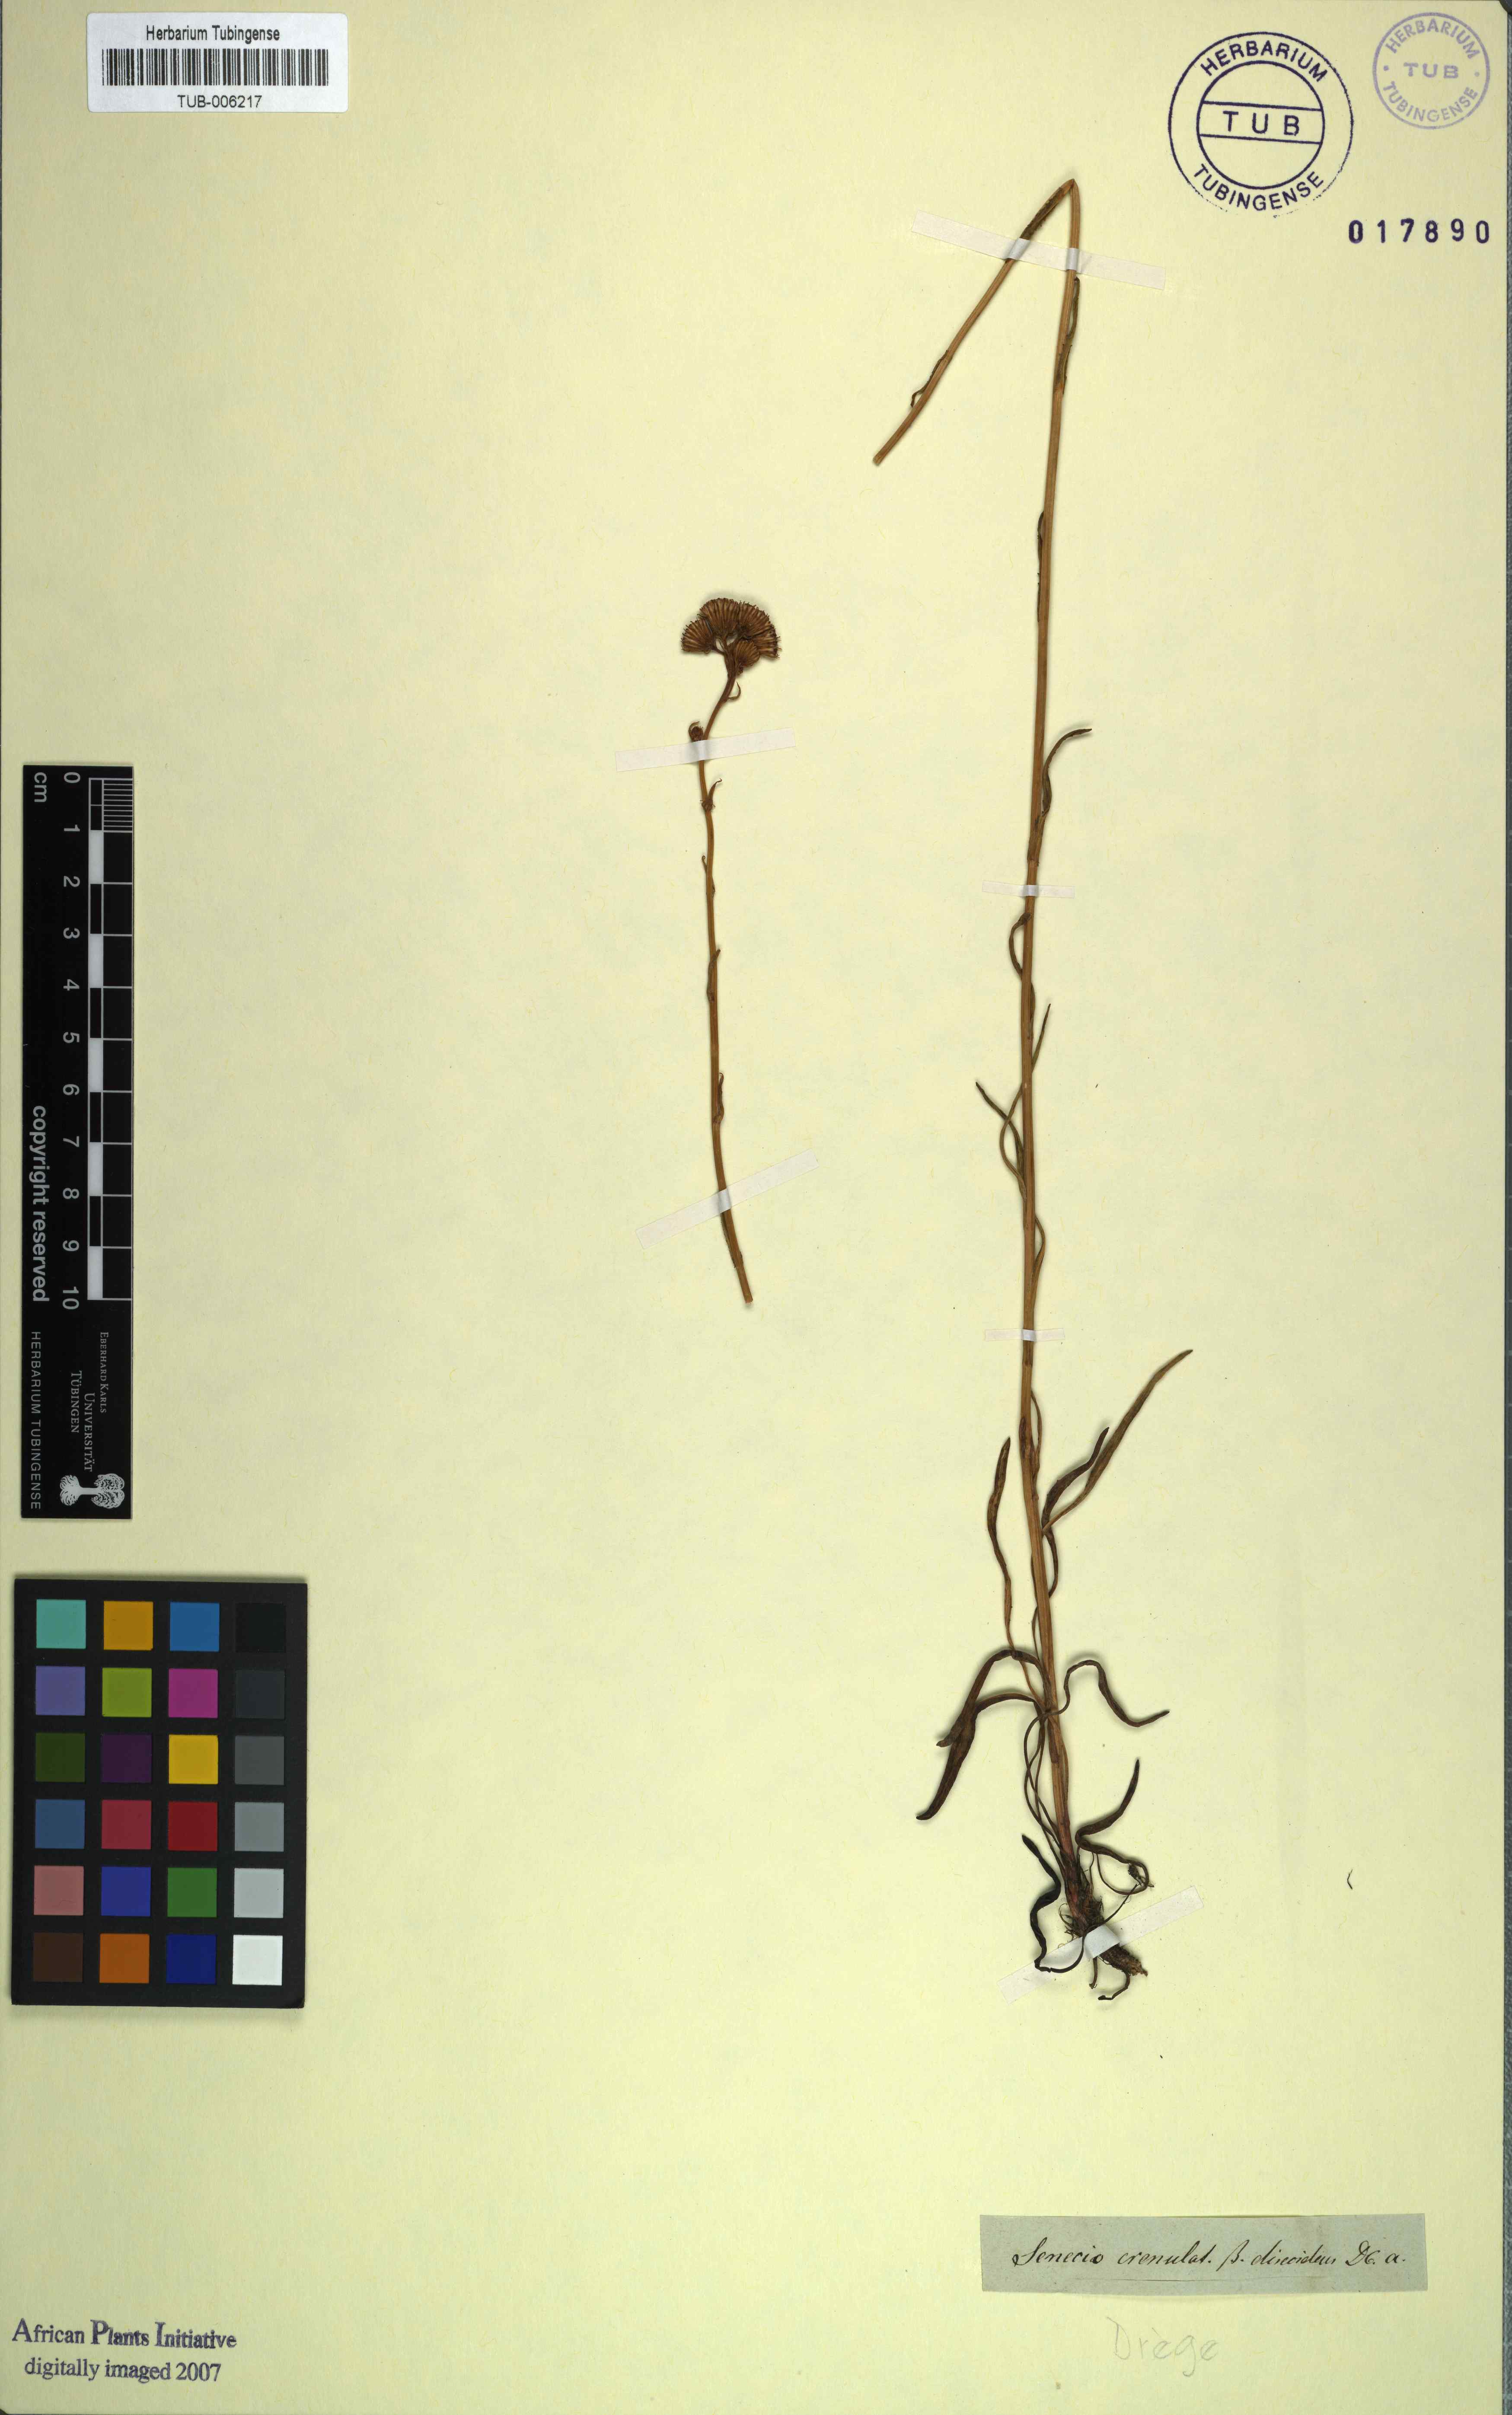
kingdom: Plantae
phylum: Tracheophyta
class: Magnoliopsida
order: Asterales
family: Asteraceae
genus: Senecio
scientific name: Senecio crenulatus
